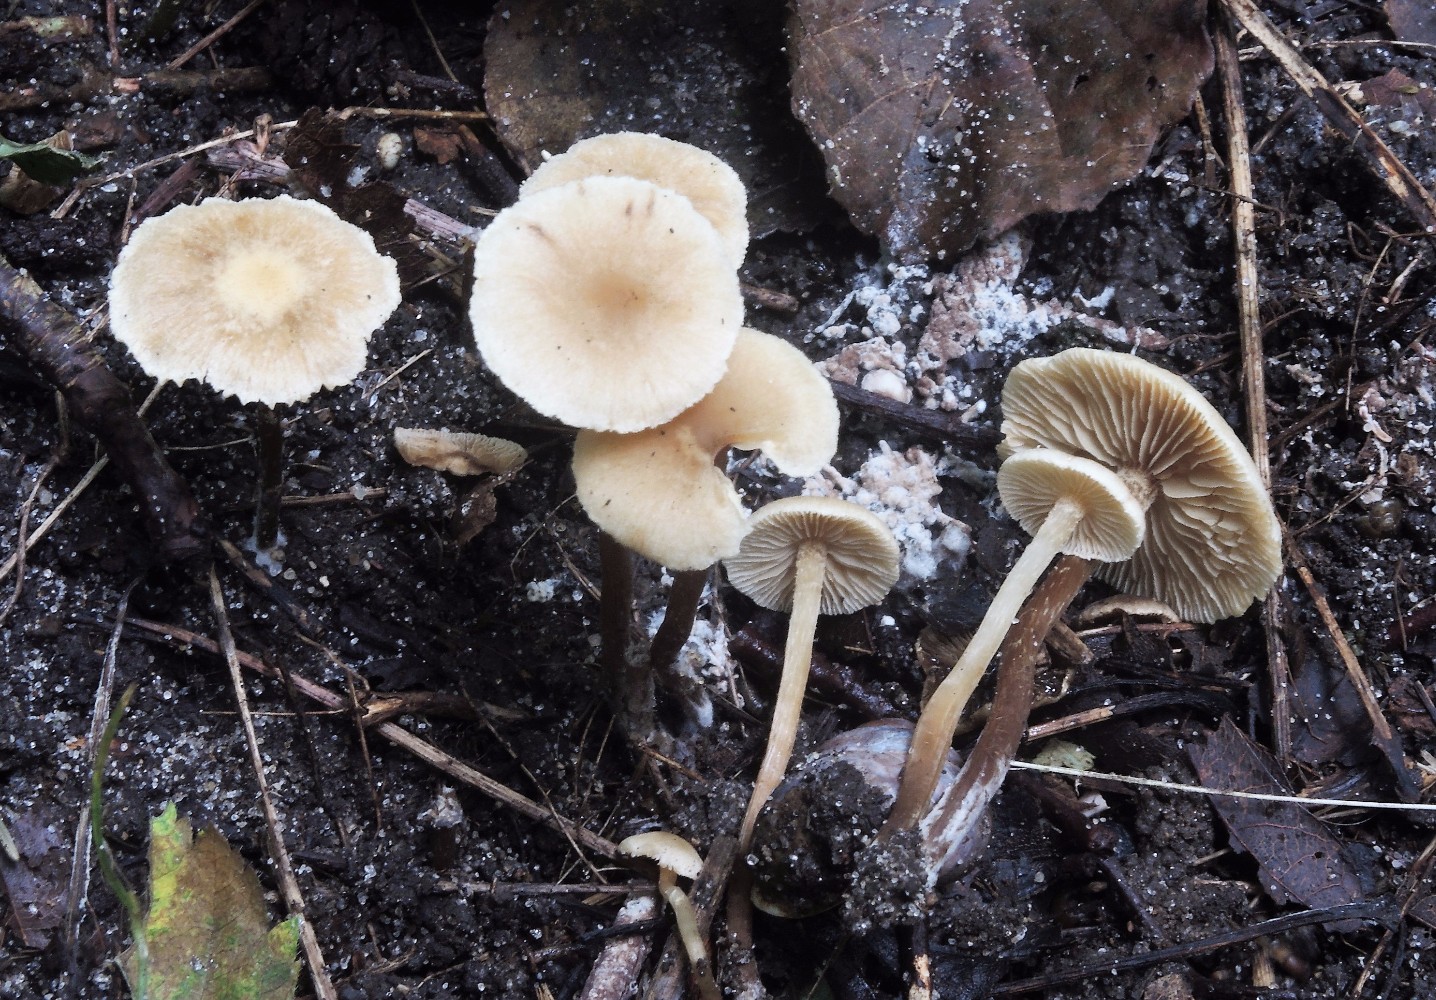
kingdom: Fungi
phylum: Basidiomycota
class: Agaricomycetes
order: Agaricales
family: Hymenogastraceae
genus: Naucoria
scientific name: Naucoria escharioides
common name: lys elle-knaphat
